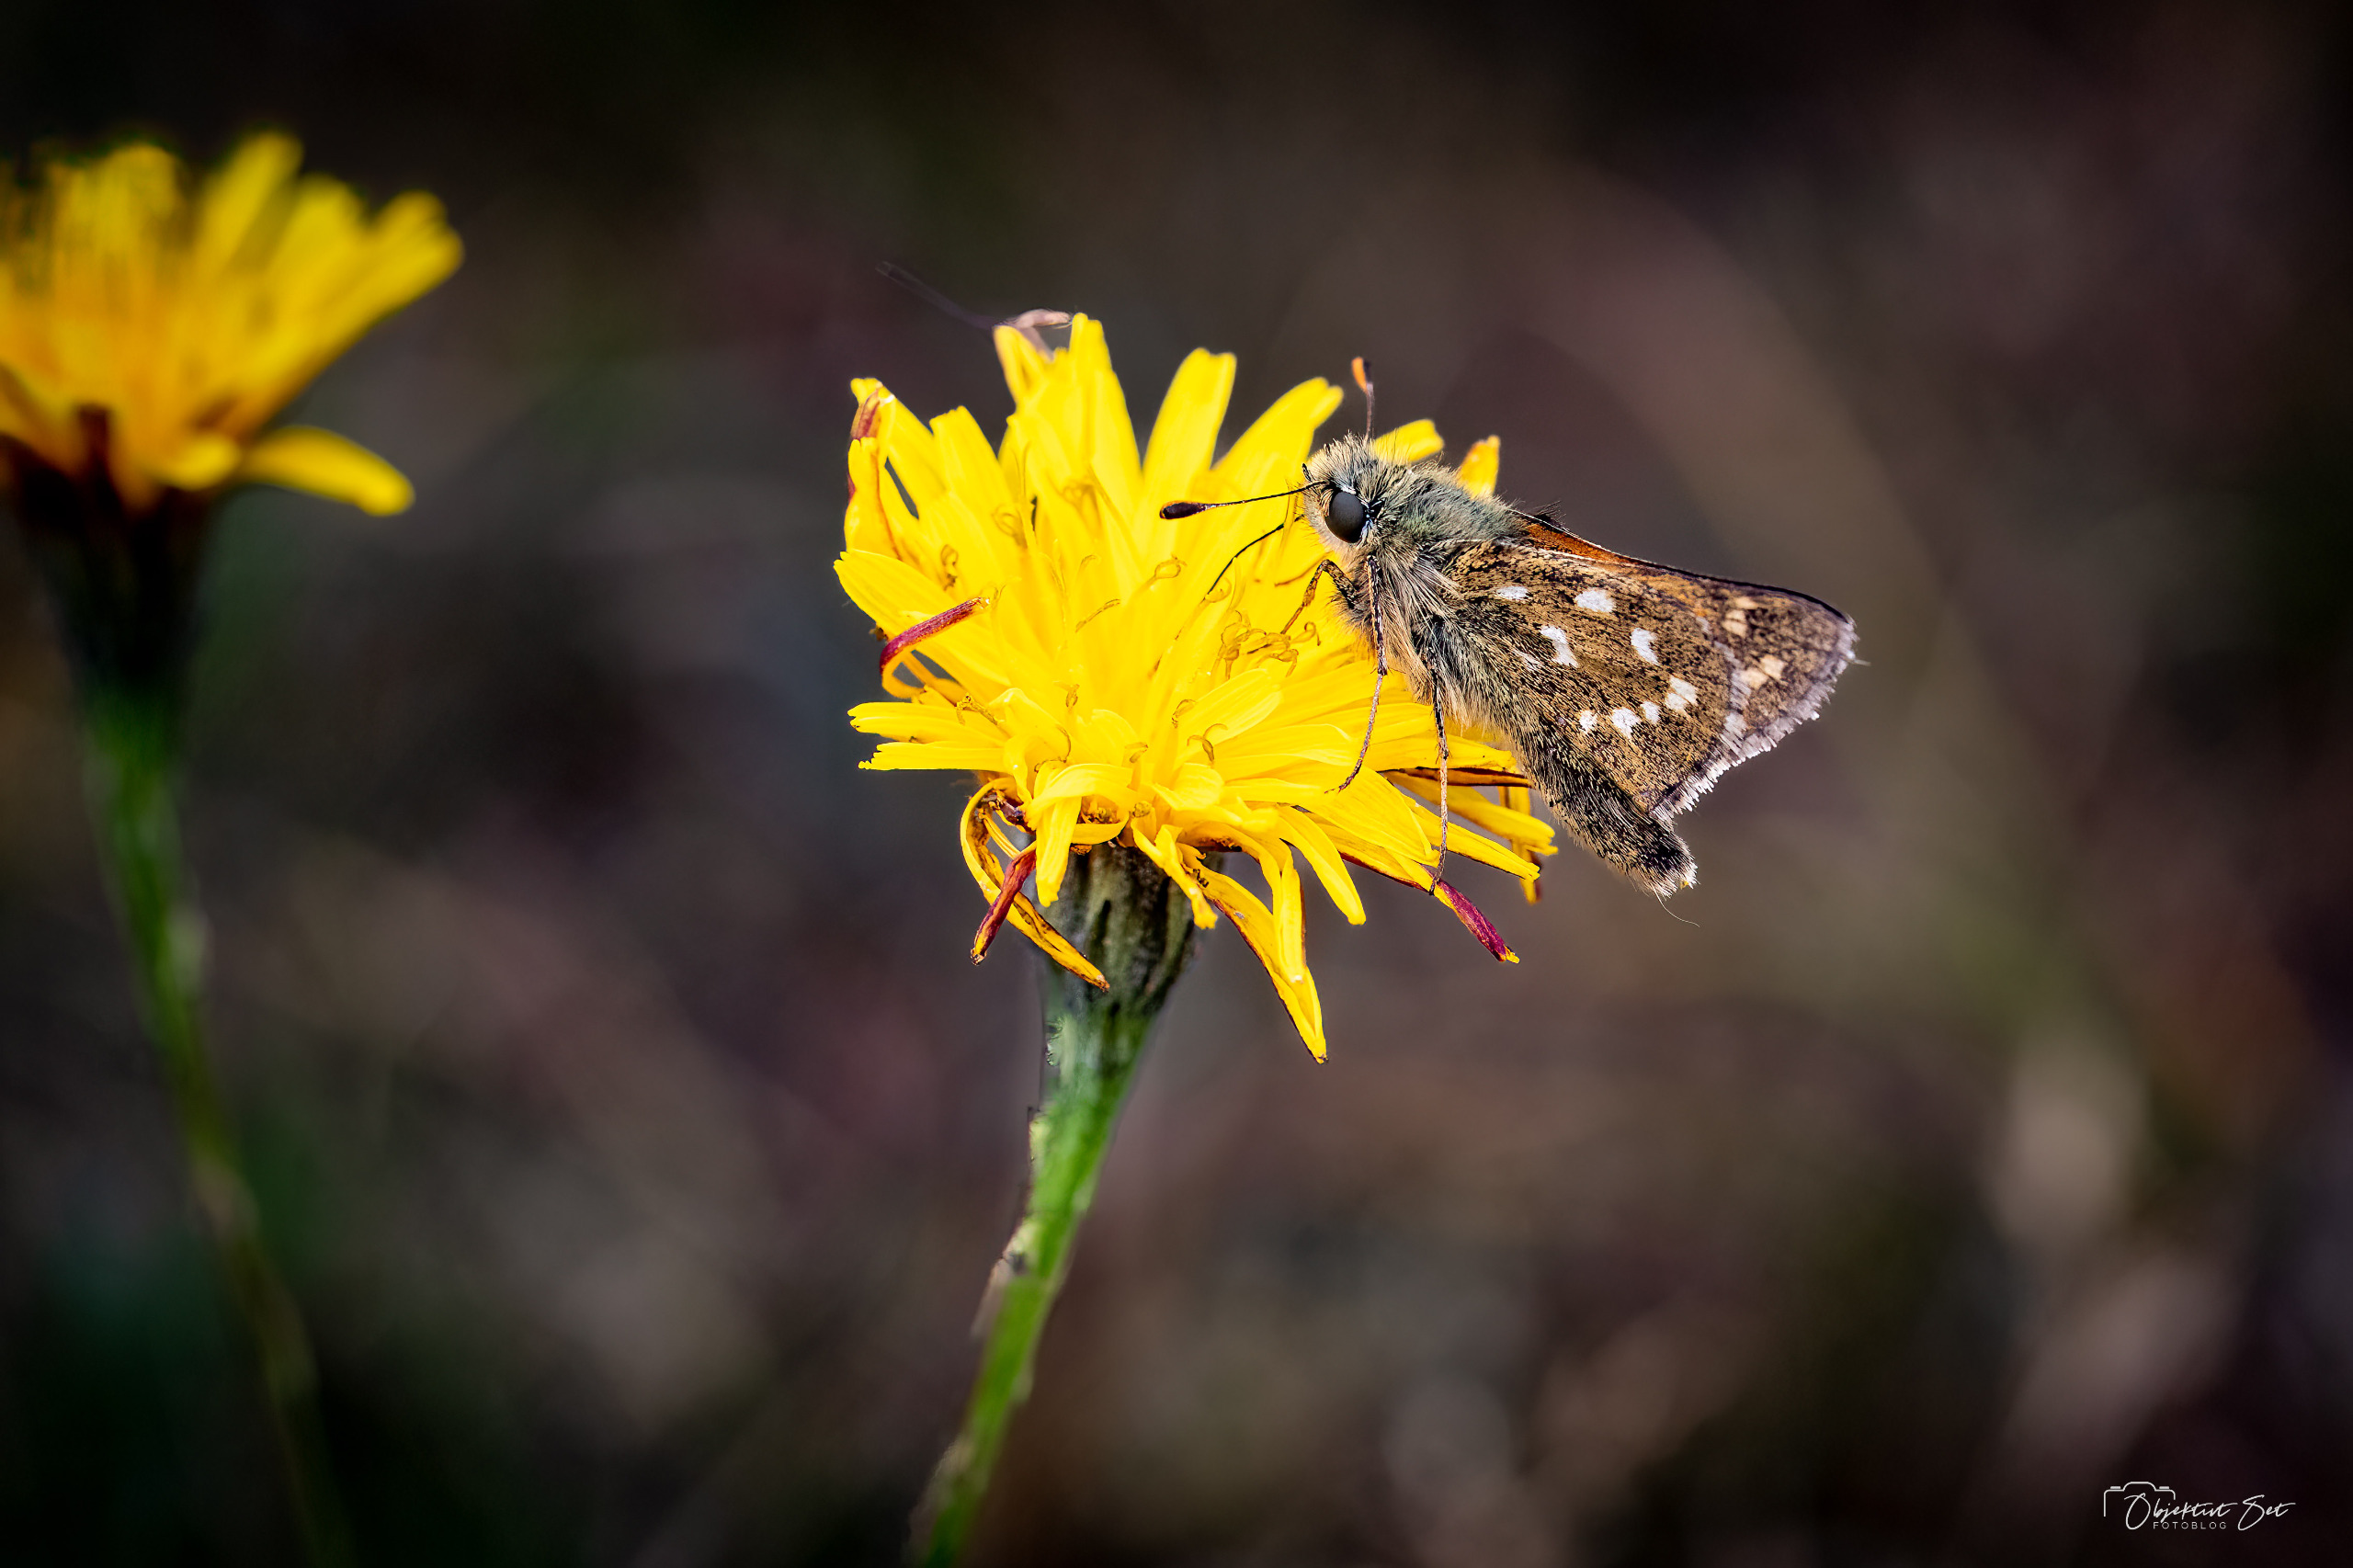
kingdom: Animalia
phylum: Arthropoda
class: Insecta
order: Lepidoptera
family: Hesperiidae
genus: Hesperia
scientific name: Hesperia comma
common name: Kommabredpande
